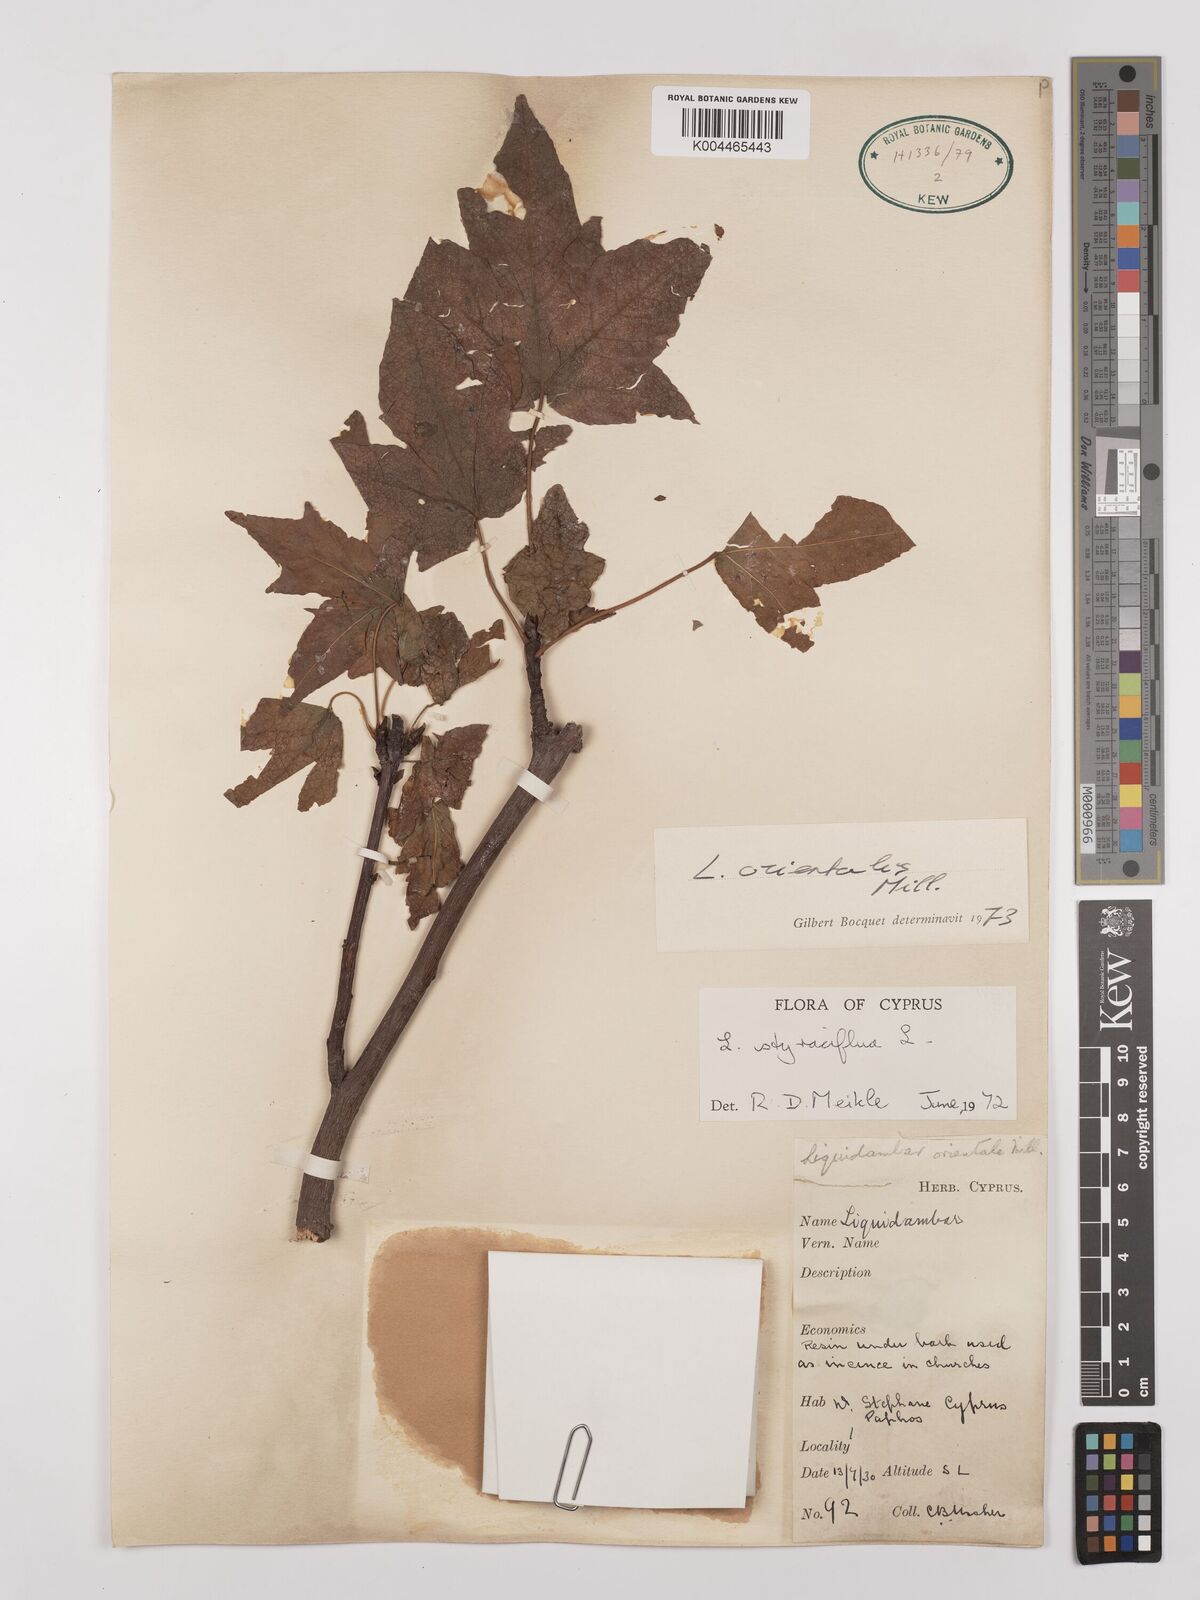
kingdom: Plantae
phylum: Tracheophyta
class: Magnoliopsida
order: Saxifragales
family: Altingiaceae
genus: Liquidambar
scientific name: Liquidambar orientalis
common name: Oriental sweetgum
